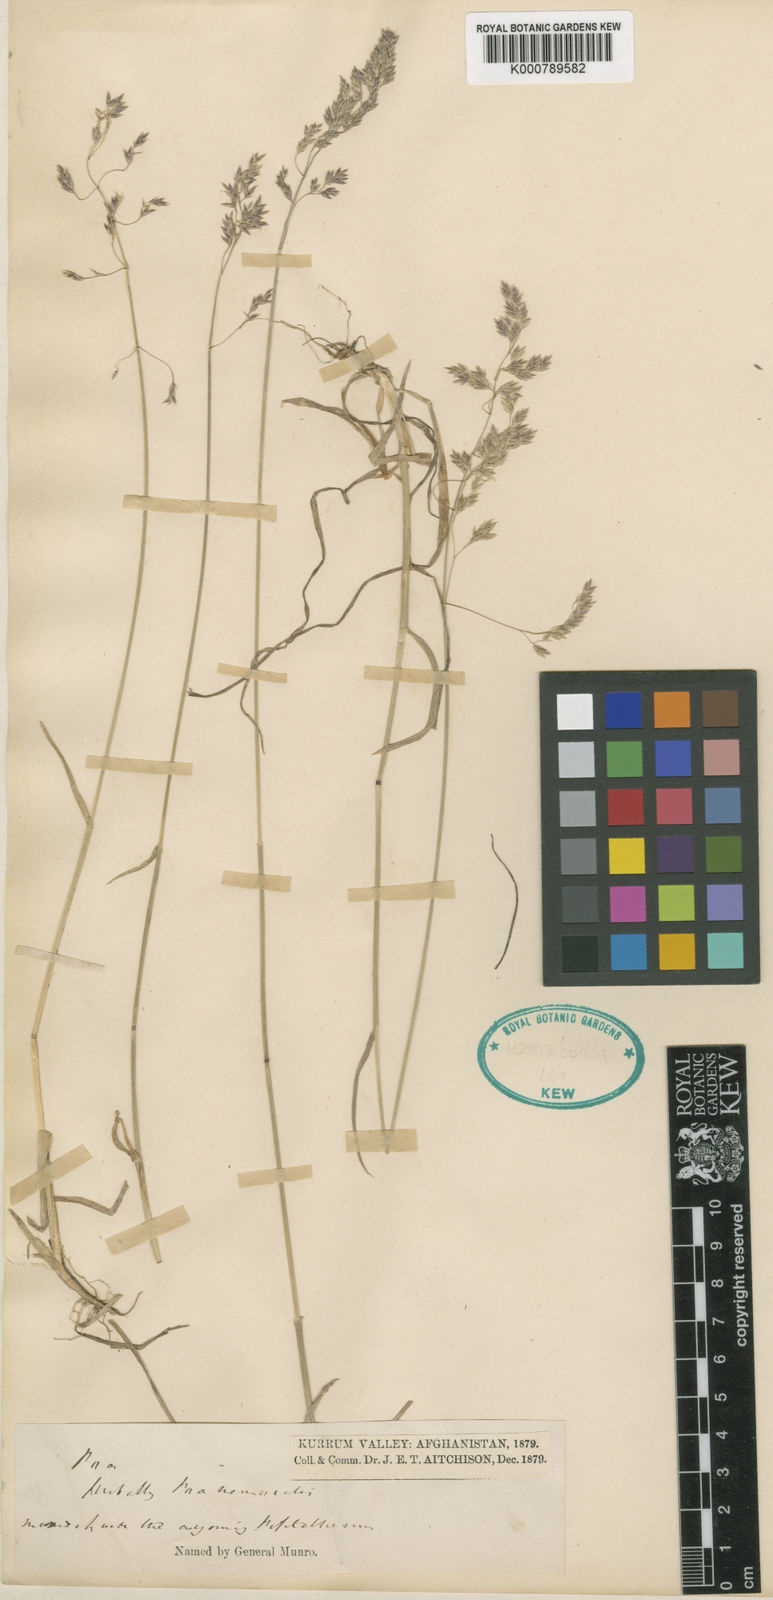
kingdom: Plantae
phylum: Tracheophyta
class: Liliopsida
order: Poales
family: Poaceae
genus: Poa
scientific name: Poa aitchisonii
